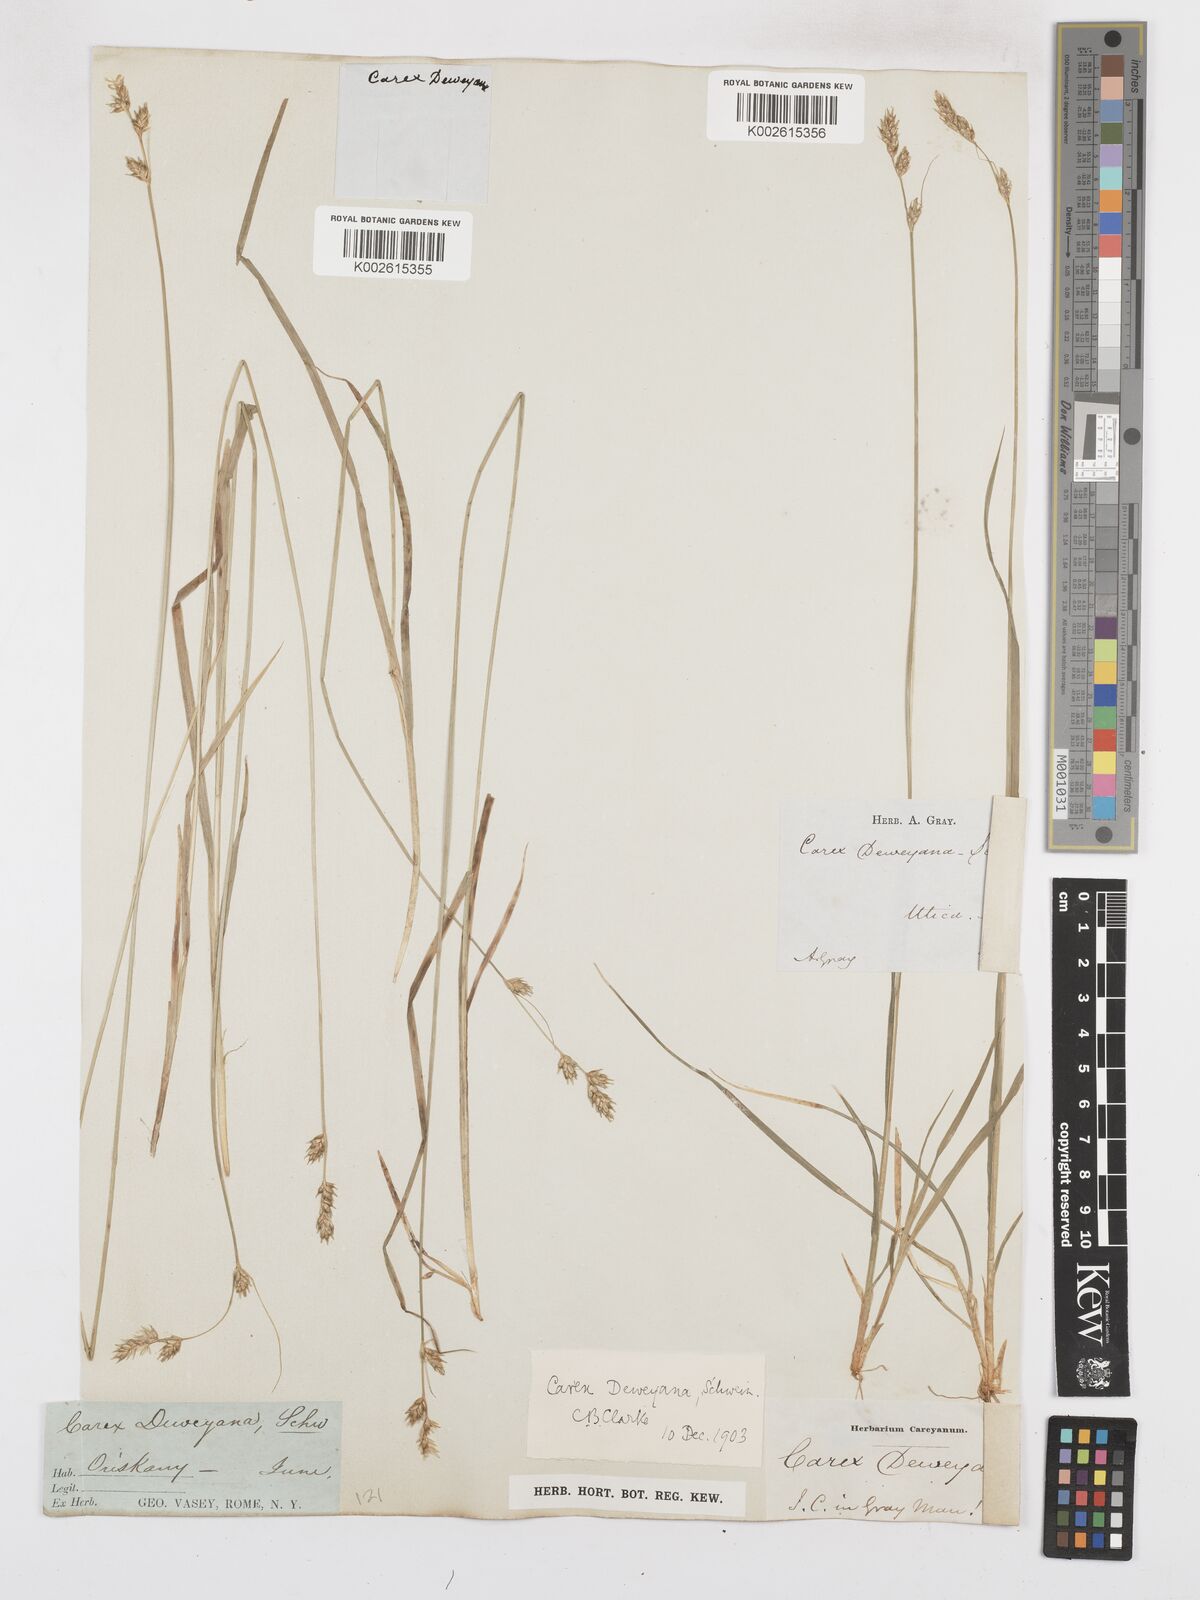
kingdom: Plantae
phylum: Tracheophyta
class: Liliopsida
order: Poales
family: Cyperaceae
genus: Carex
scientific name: Carex deweyana
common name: Dewey's sedge
